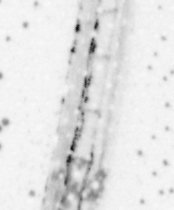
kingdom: Animalia
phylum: Chordata
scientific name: Chordata
